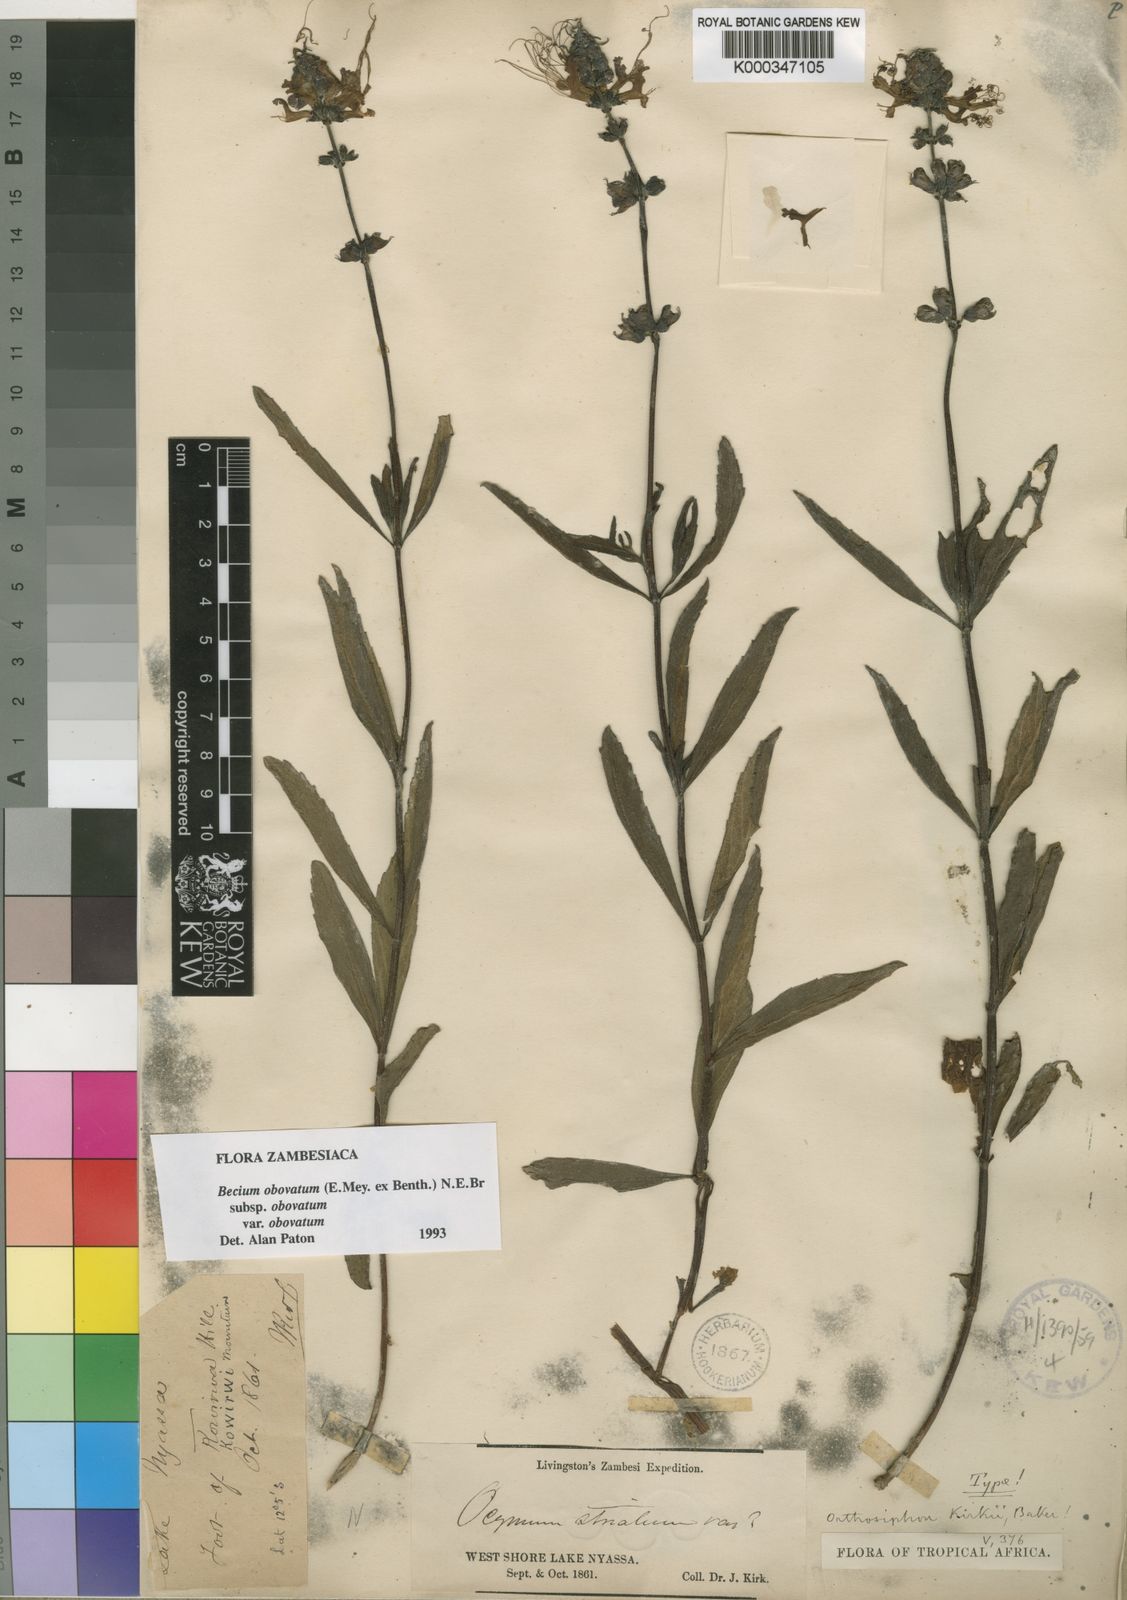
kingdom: Plantae
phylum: Tracheophyta
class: Magnoliopsida
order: Lamiales
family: Lamiaceae
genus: Ocimum
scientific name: Ocimum obovatum
